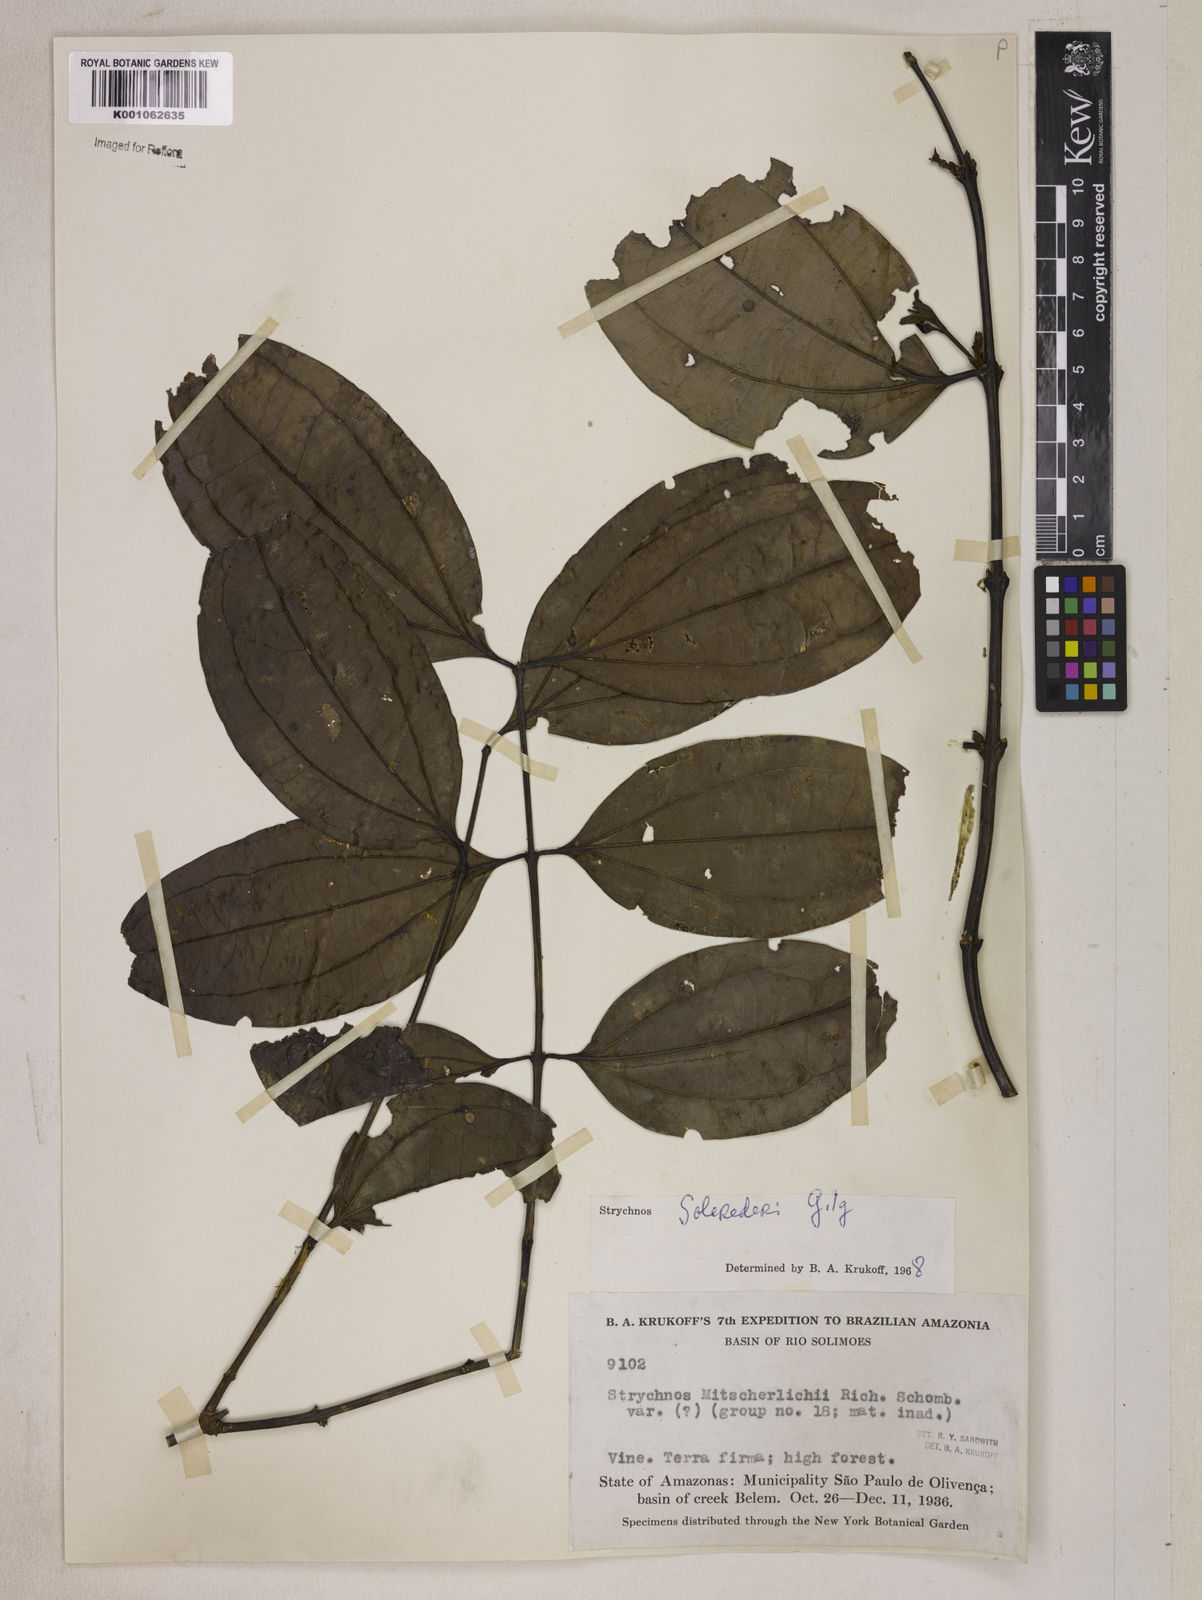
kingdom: Plantae
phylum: Tracheophyta
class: Magnoliopsida
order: Gentianales
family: Loganiaceae
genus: Strychnos
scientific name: Strychnos solerederi
